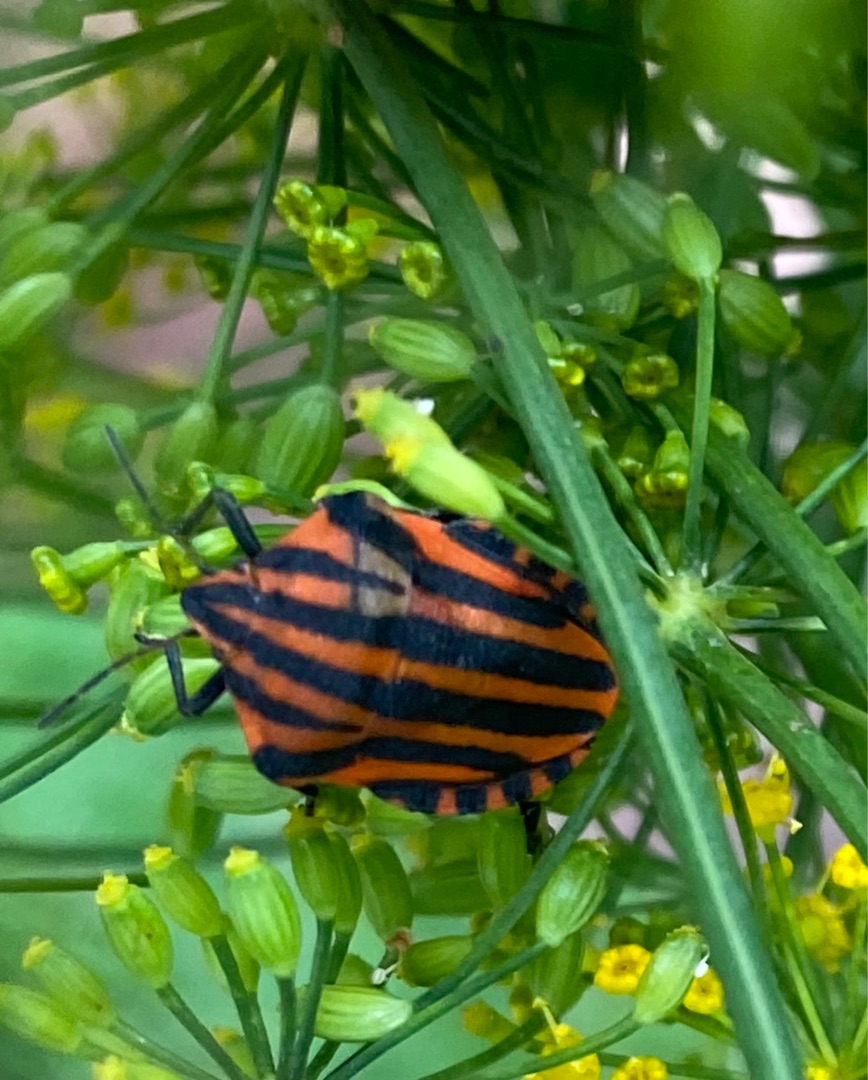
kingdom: Animalia
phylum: Arthropoda
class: Insecta
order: Hemiptera
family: Pentatomidae
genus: Graphosoma
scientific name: Graphosoma italicum
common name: Stribetæge
